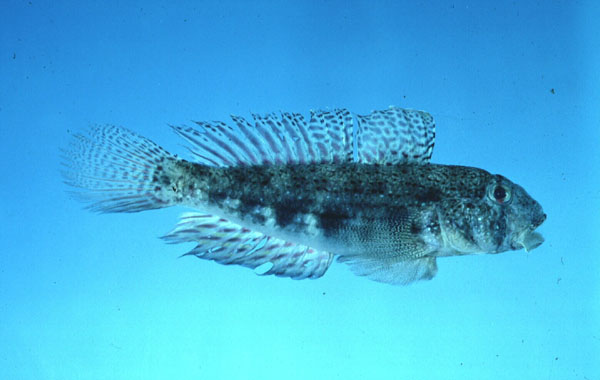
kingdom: Animalia
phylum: Chordata
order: Perciformes
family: Gobiidae
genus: Gnatholepis
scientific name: Gnatholepis anjerensis
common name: Anjer eye-bar goby
